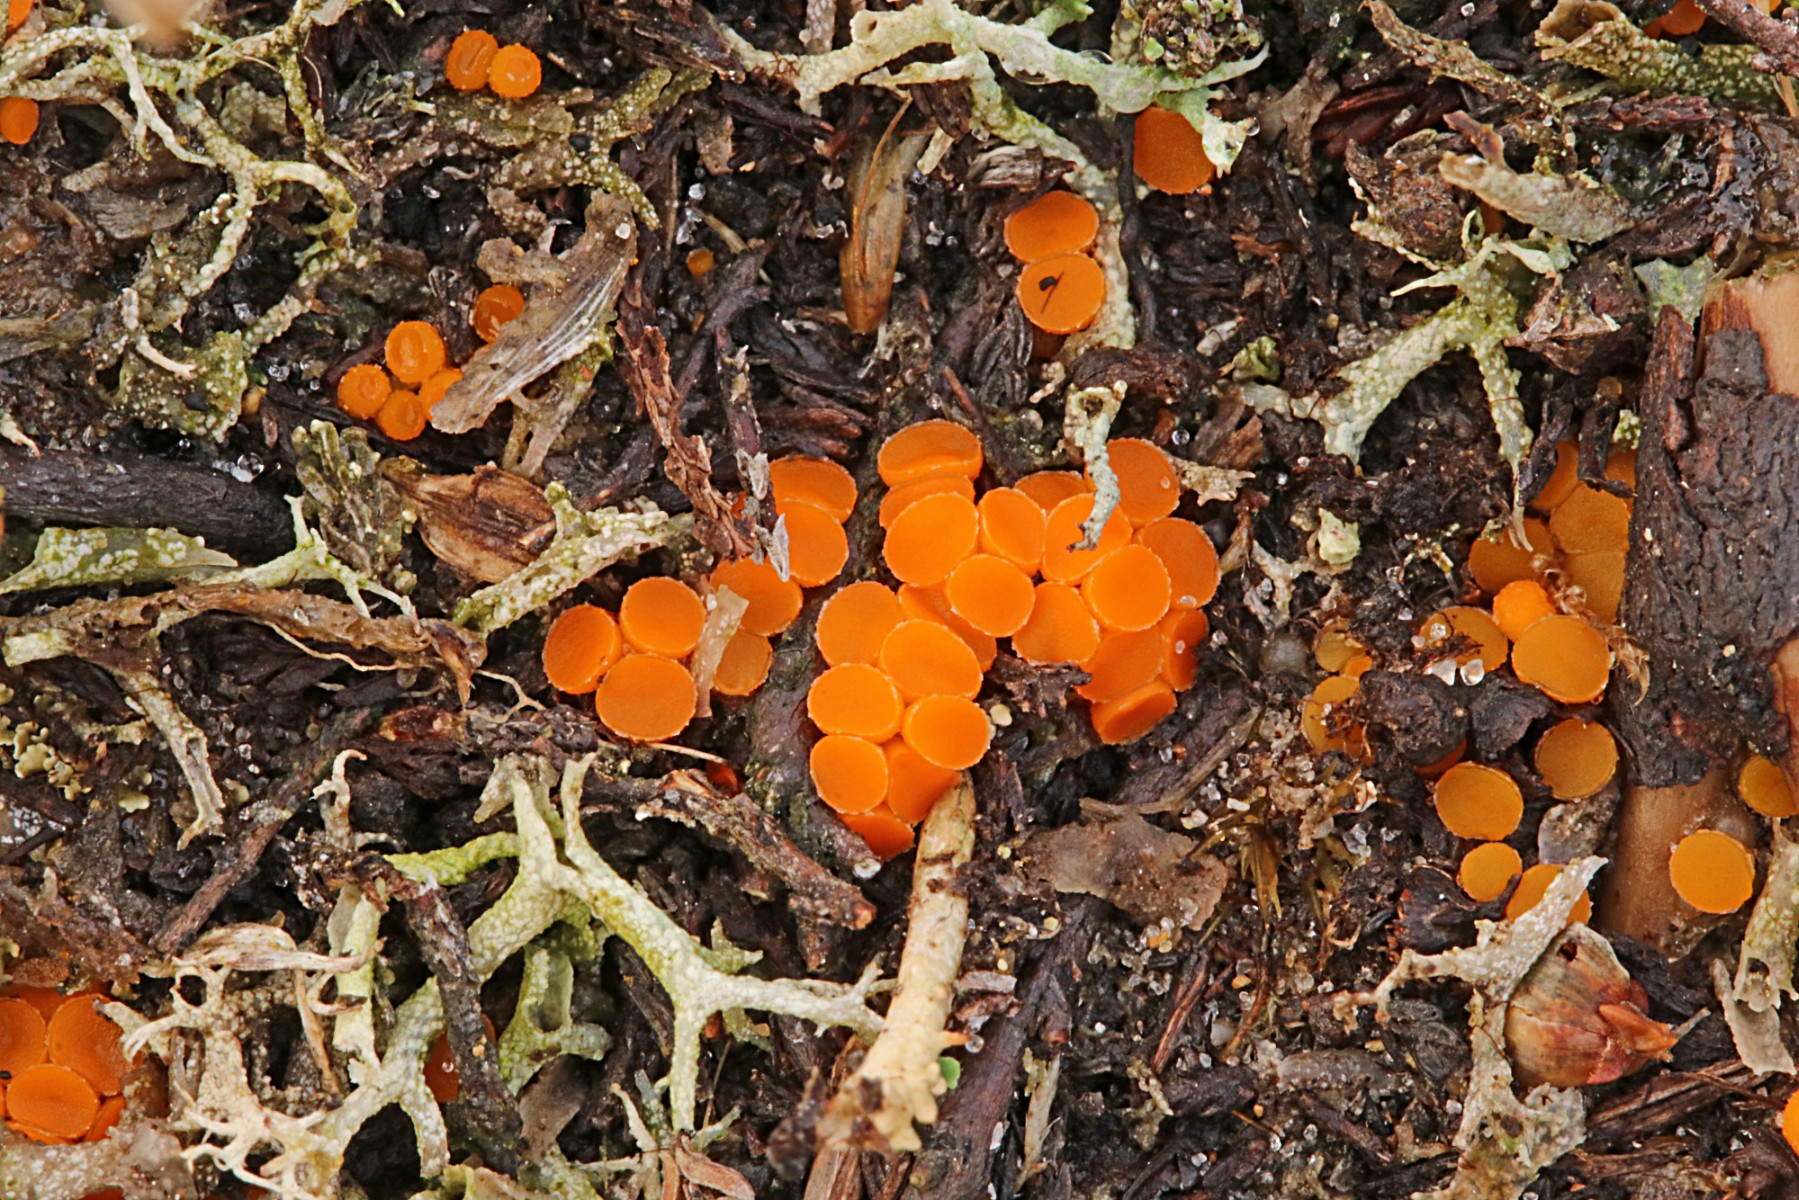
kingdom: Fungi
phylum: Ascomycota
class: Pezizomycetes
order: Pezizales
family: Pyronemataceae
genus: Byssonectria
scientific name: Byssonectria terrestris
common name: hjortebæger
